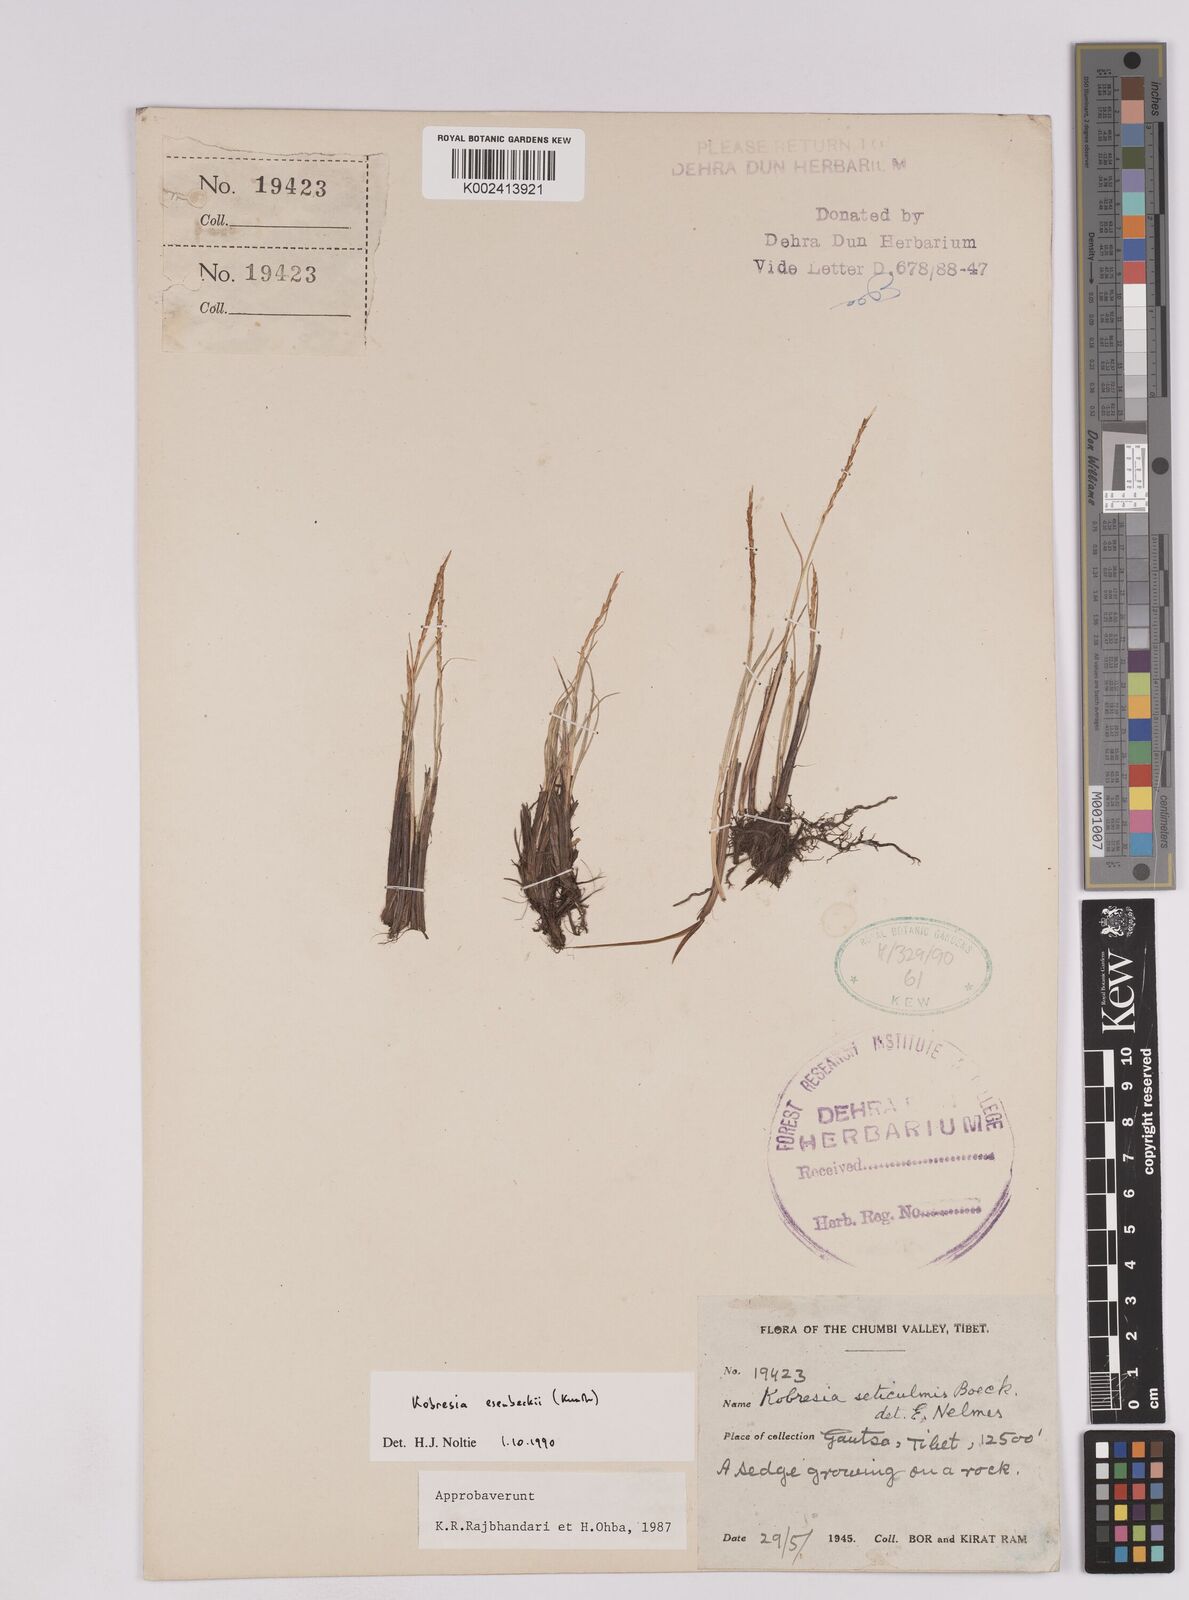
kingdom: Plantae
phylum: Tracheophyta
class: Liliopsida
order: Poales
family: Cyperaceae
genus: Carex
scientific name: Carex esenbeckii
